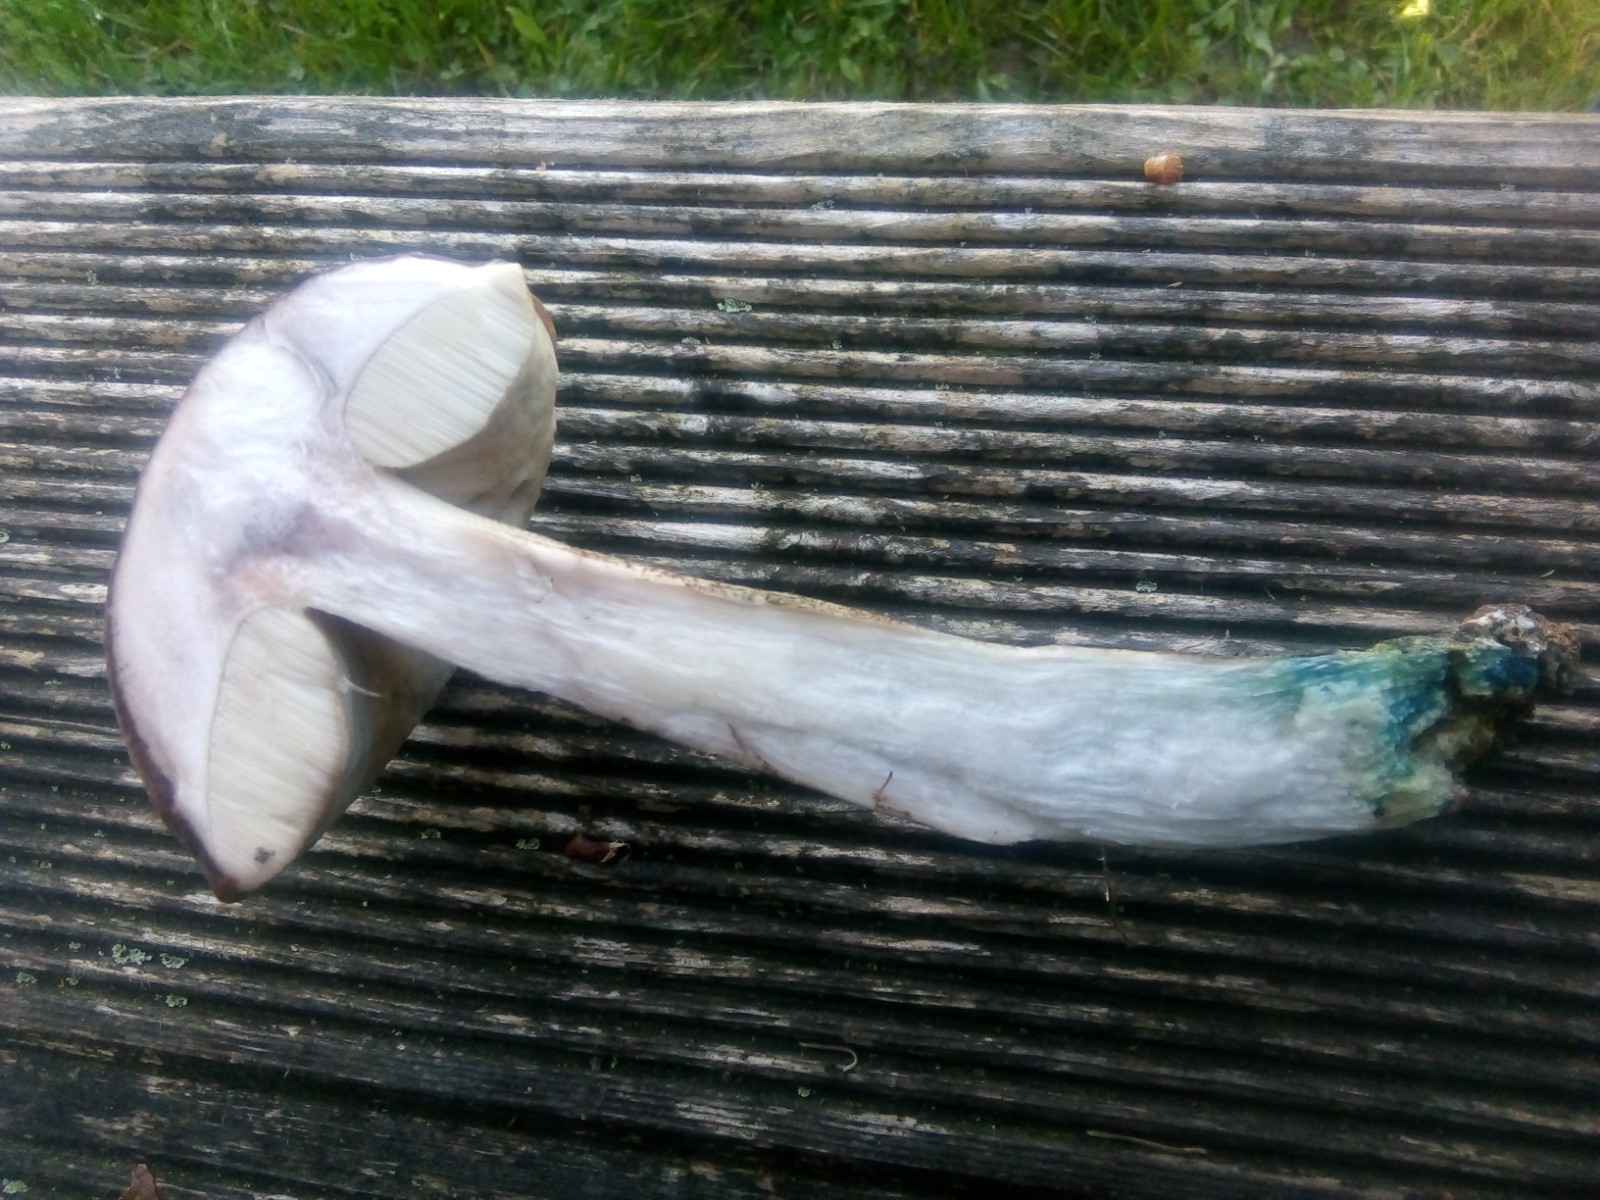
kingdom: Fungi
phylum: Basidiomycota
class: Agaricomycetes
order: Boletales
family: Boletaceae
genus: Leccinum
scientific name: Leccinum duriusculum
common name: poppel-skælrørhat
